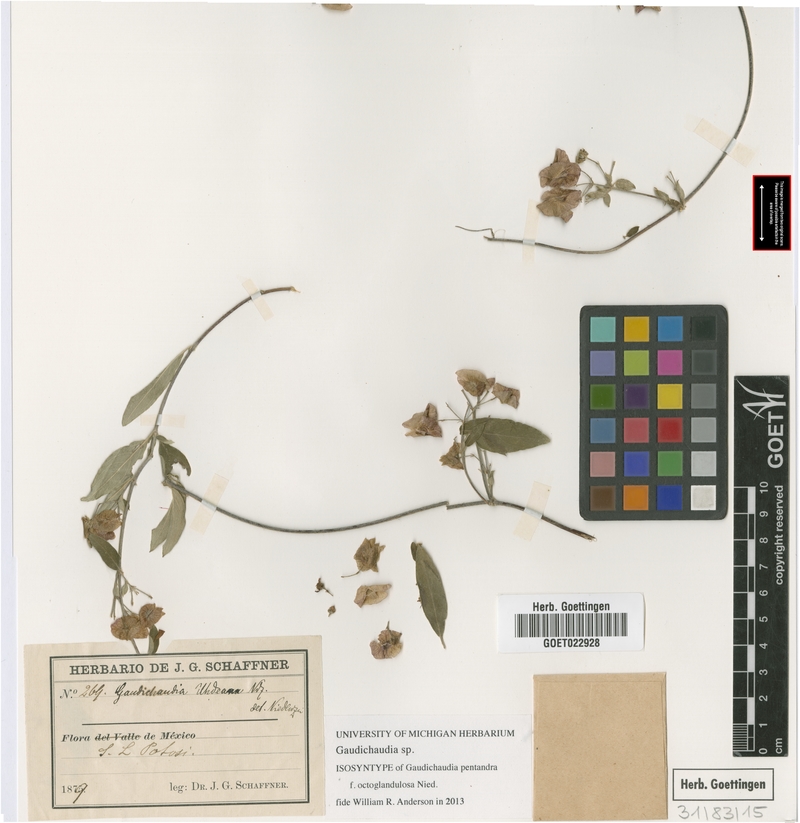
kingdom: Plantae
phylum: Tracheophyta
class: Magnoliopsida
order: Malpighiales
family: Malpighiaceae
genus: Gaudichaudia
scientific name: Gaudichaudia
